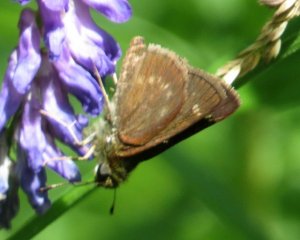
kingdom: Animalia
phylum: Arthropoda
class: Insecta
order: Lepidoptera
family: Hesperiidae
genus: Vernia
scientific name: Vernia verna
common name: Little Glassywing
